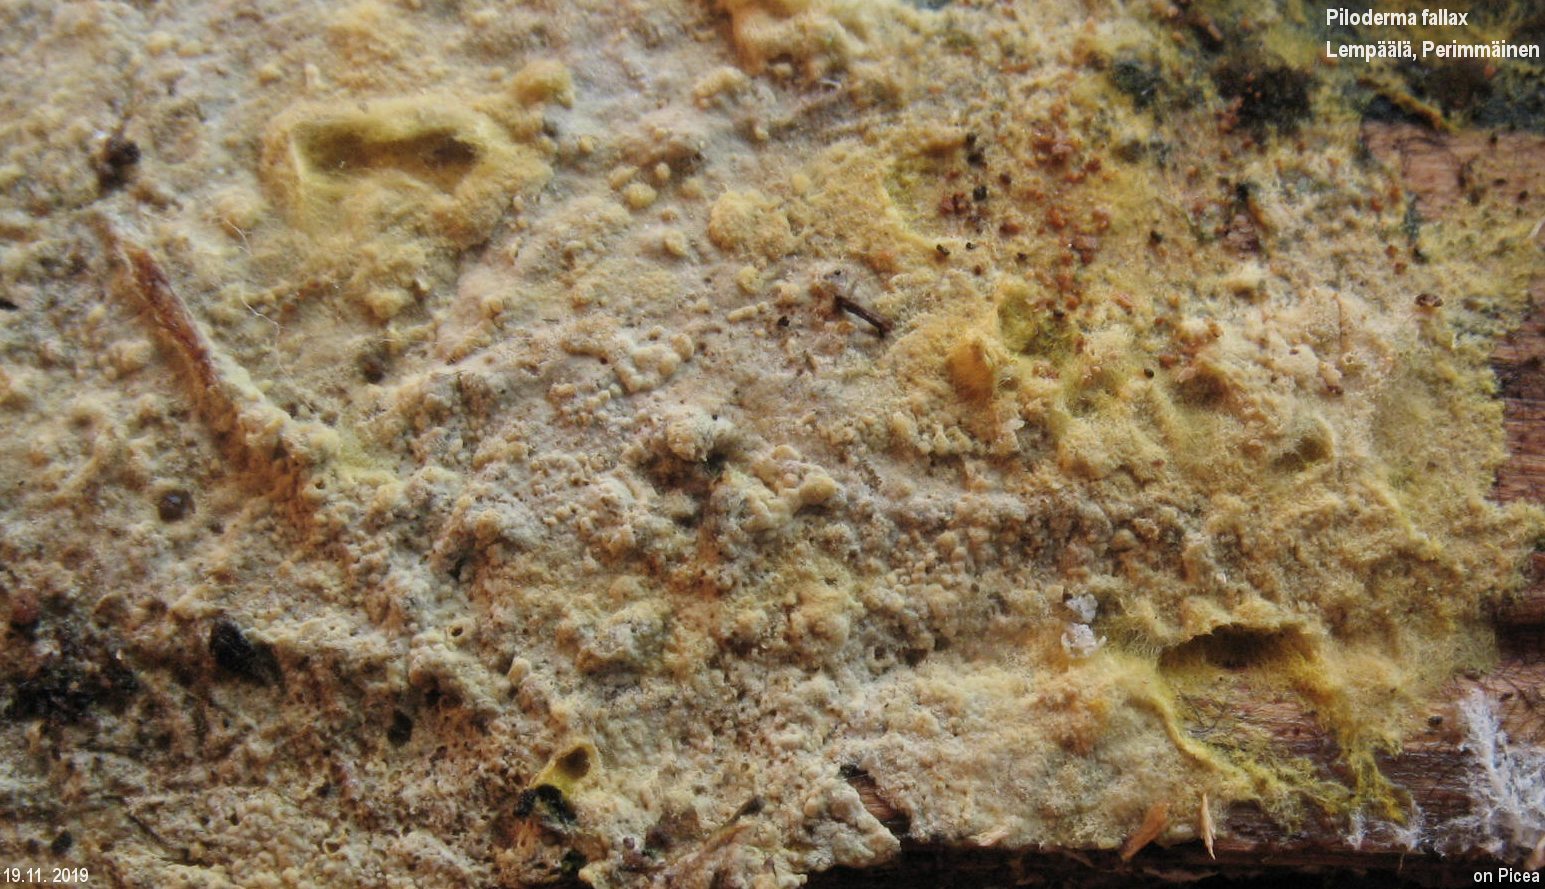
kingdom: Fungi
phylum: Basidiomycota
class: Agaricomycetes
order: Atheliales
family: Atheliaceae
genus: Piloderma
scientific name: Piloderma bicolor
